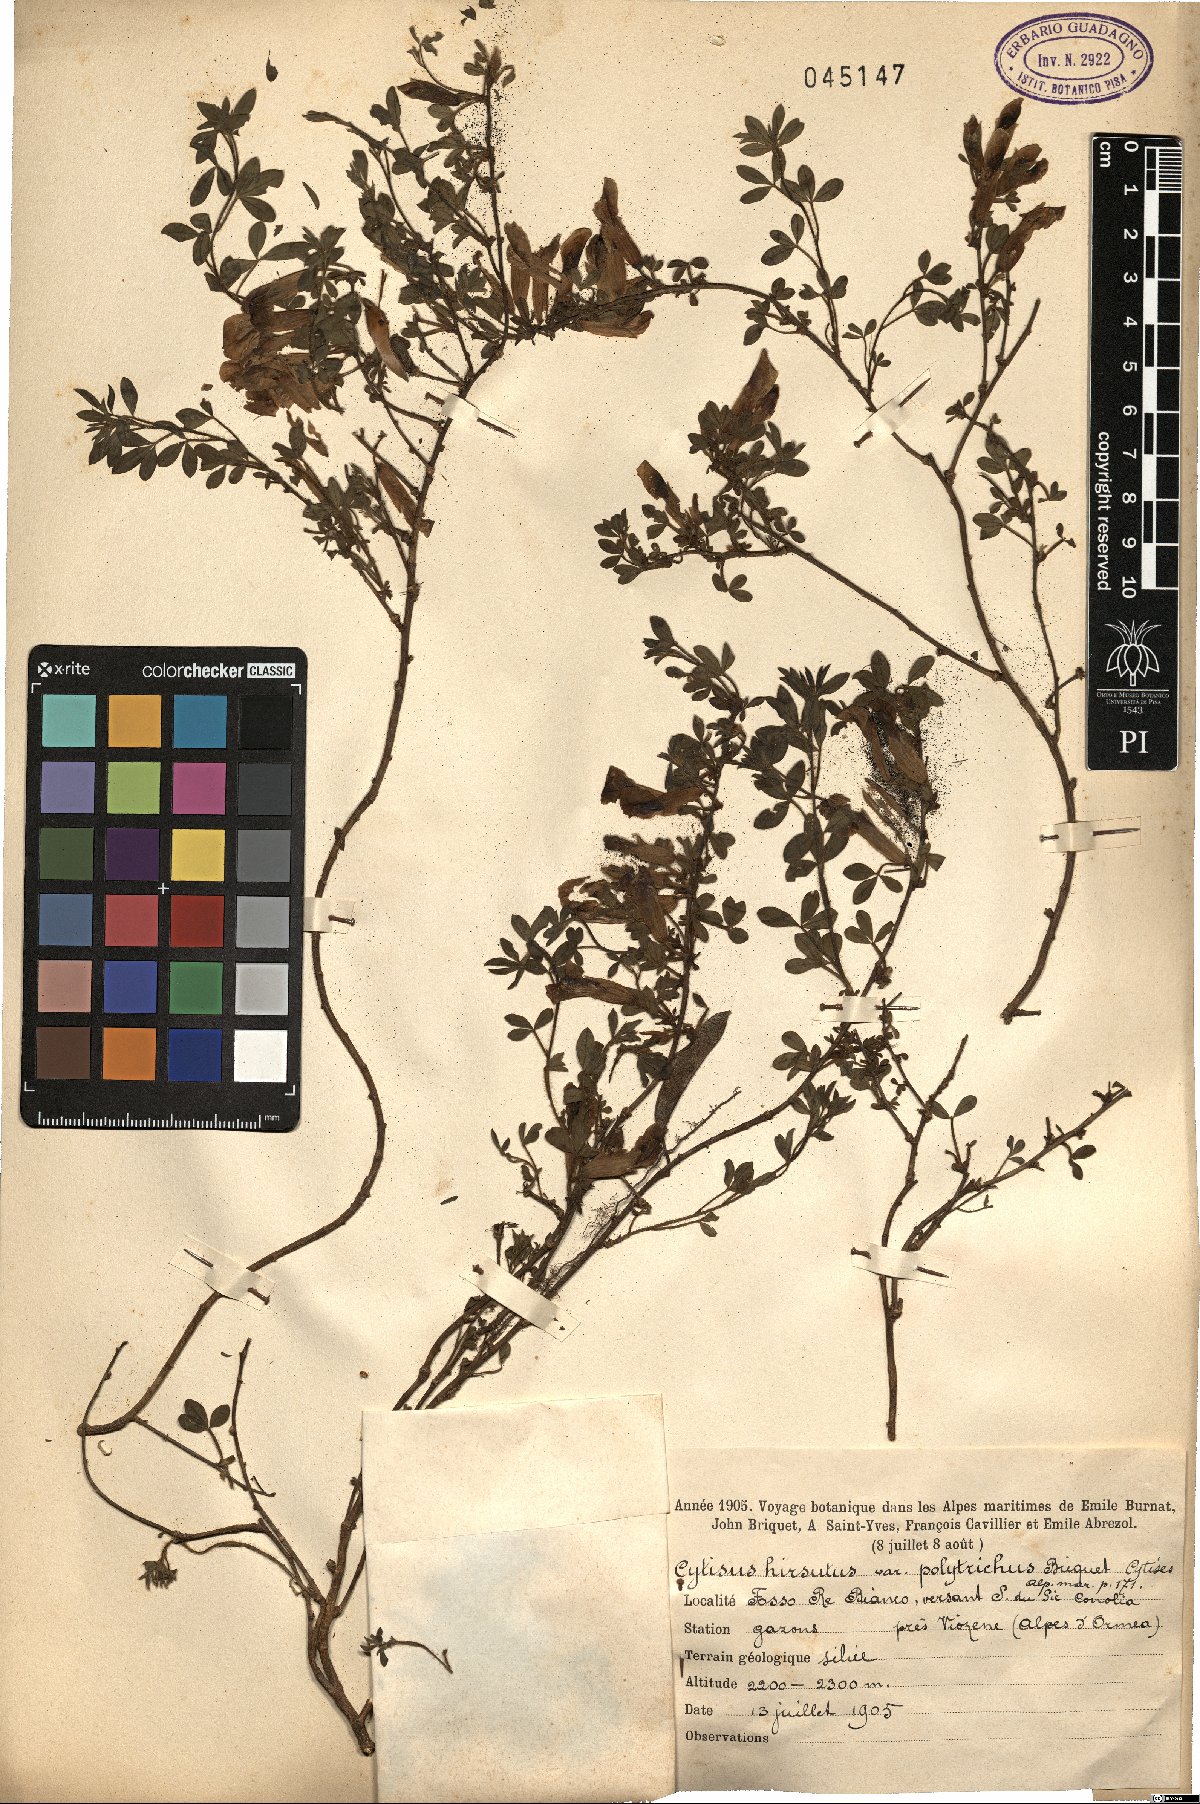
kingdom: Plantae
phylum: Tracheophyta
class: Magnoliopsida
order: Fabales
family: Fabaceae
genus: Chamaecytisus
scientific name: Chamaecytisus hirsutus
